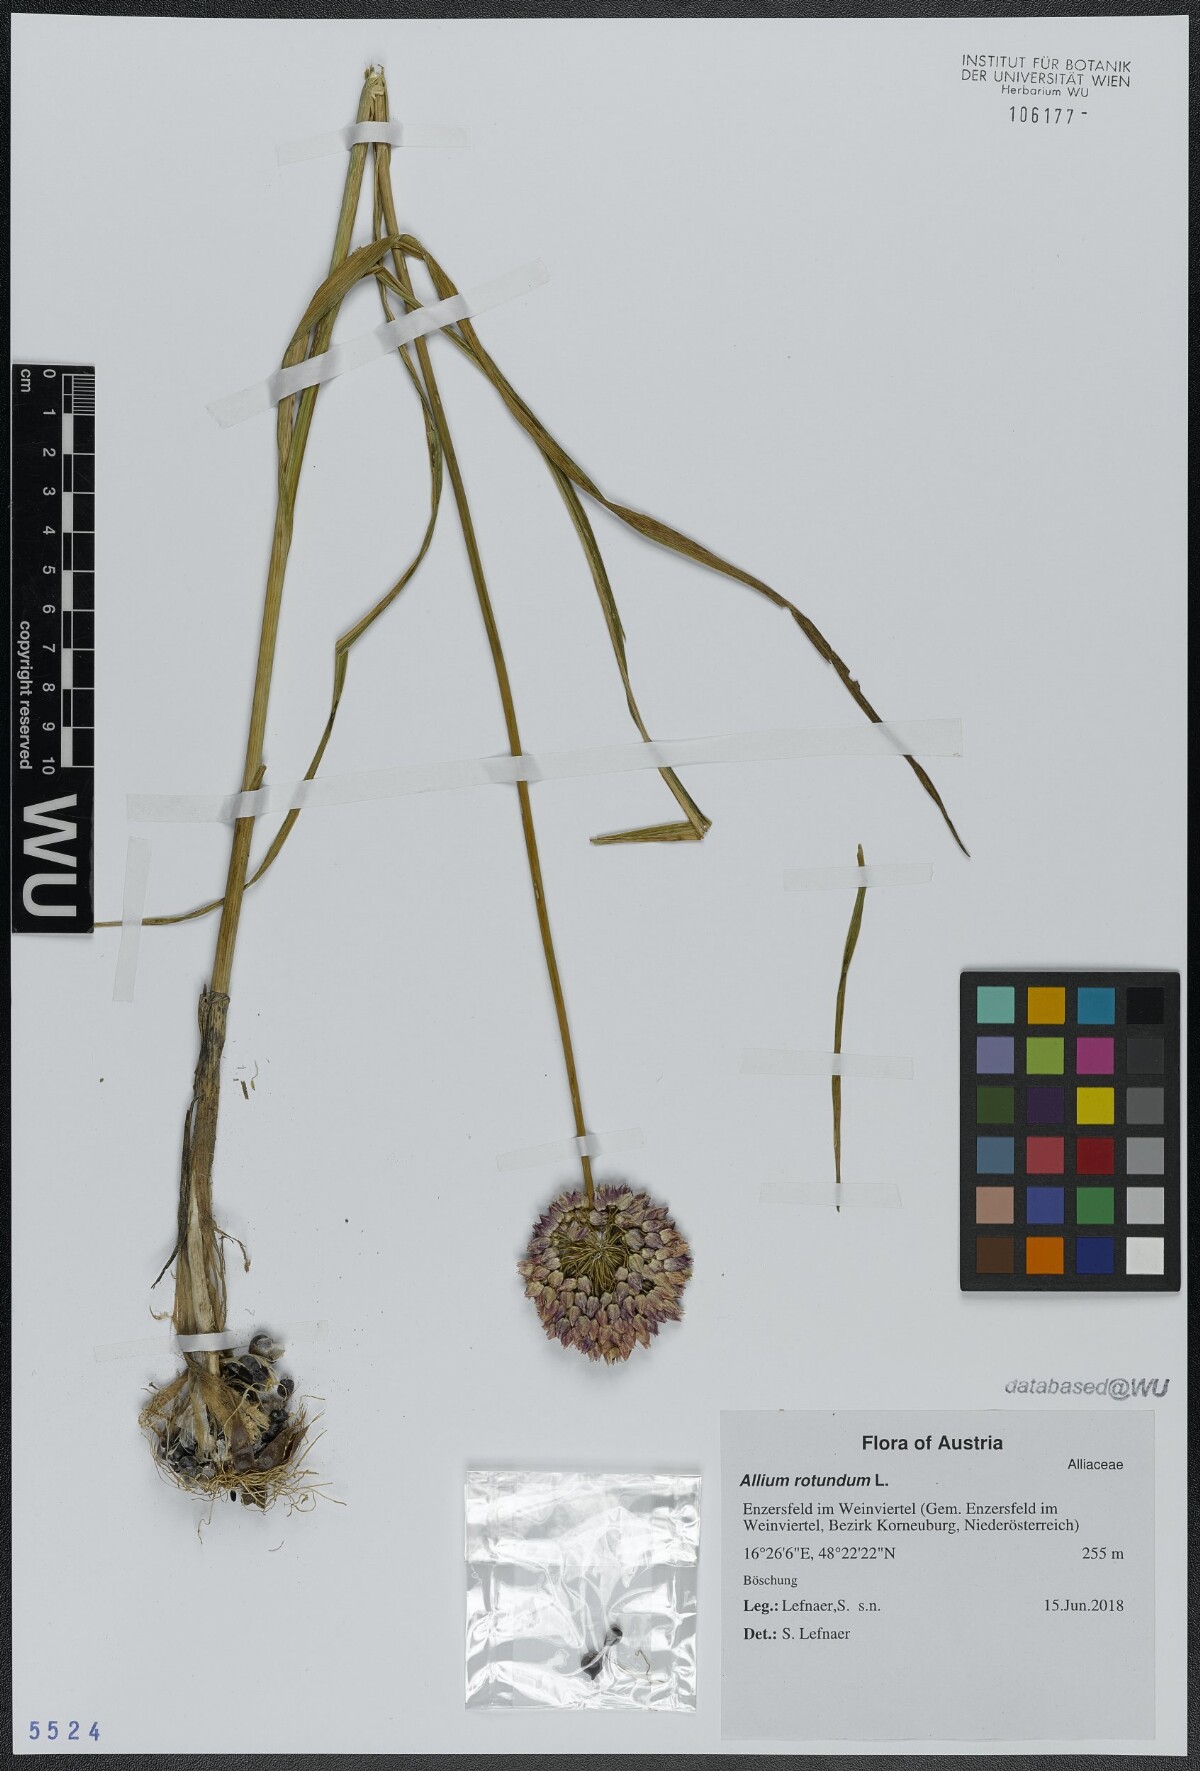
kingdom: Plantae
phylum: Tracheophyta
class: Liliopsida
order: Asparagales
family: Amaryllidaceae
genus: Allium
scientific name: Allium rotundum
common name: Sand leek
